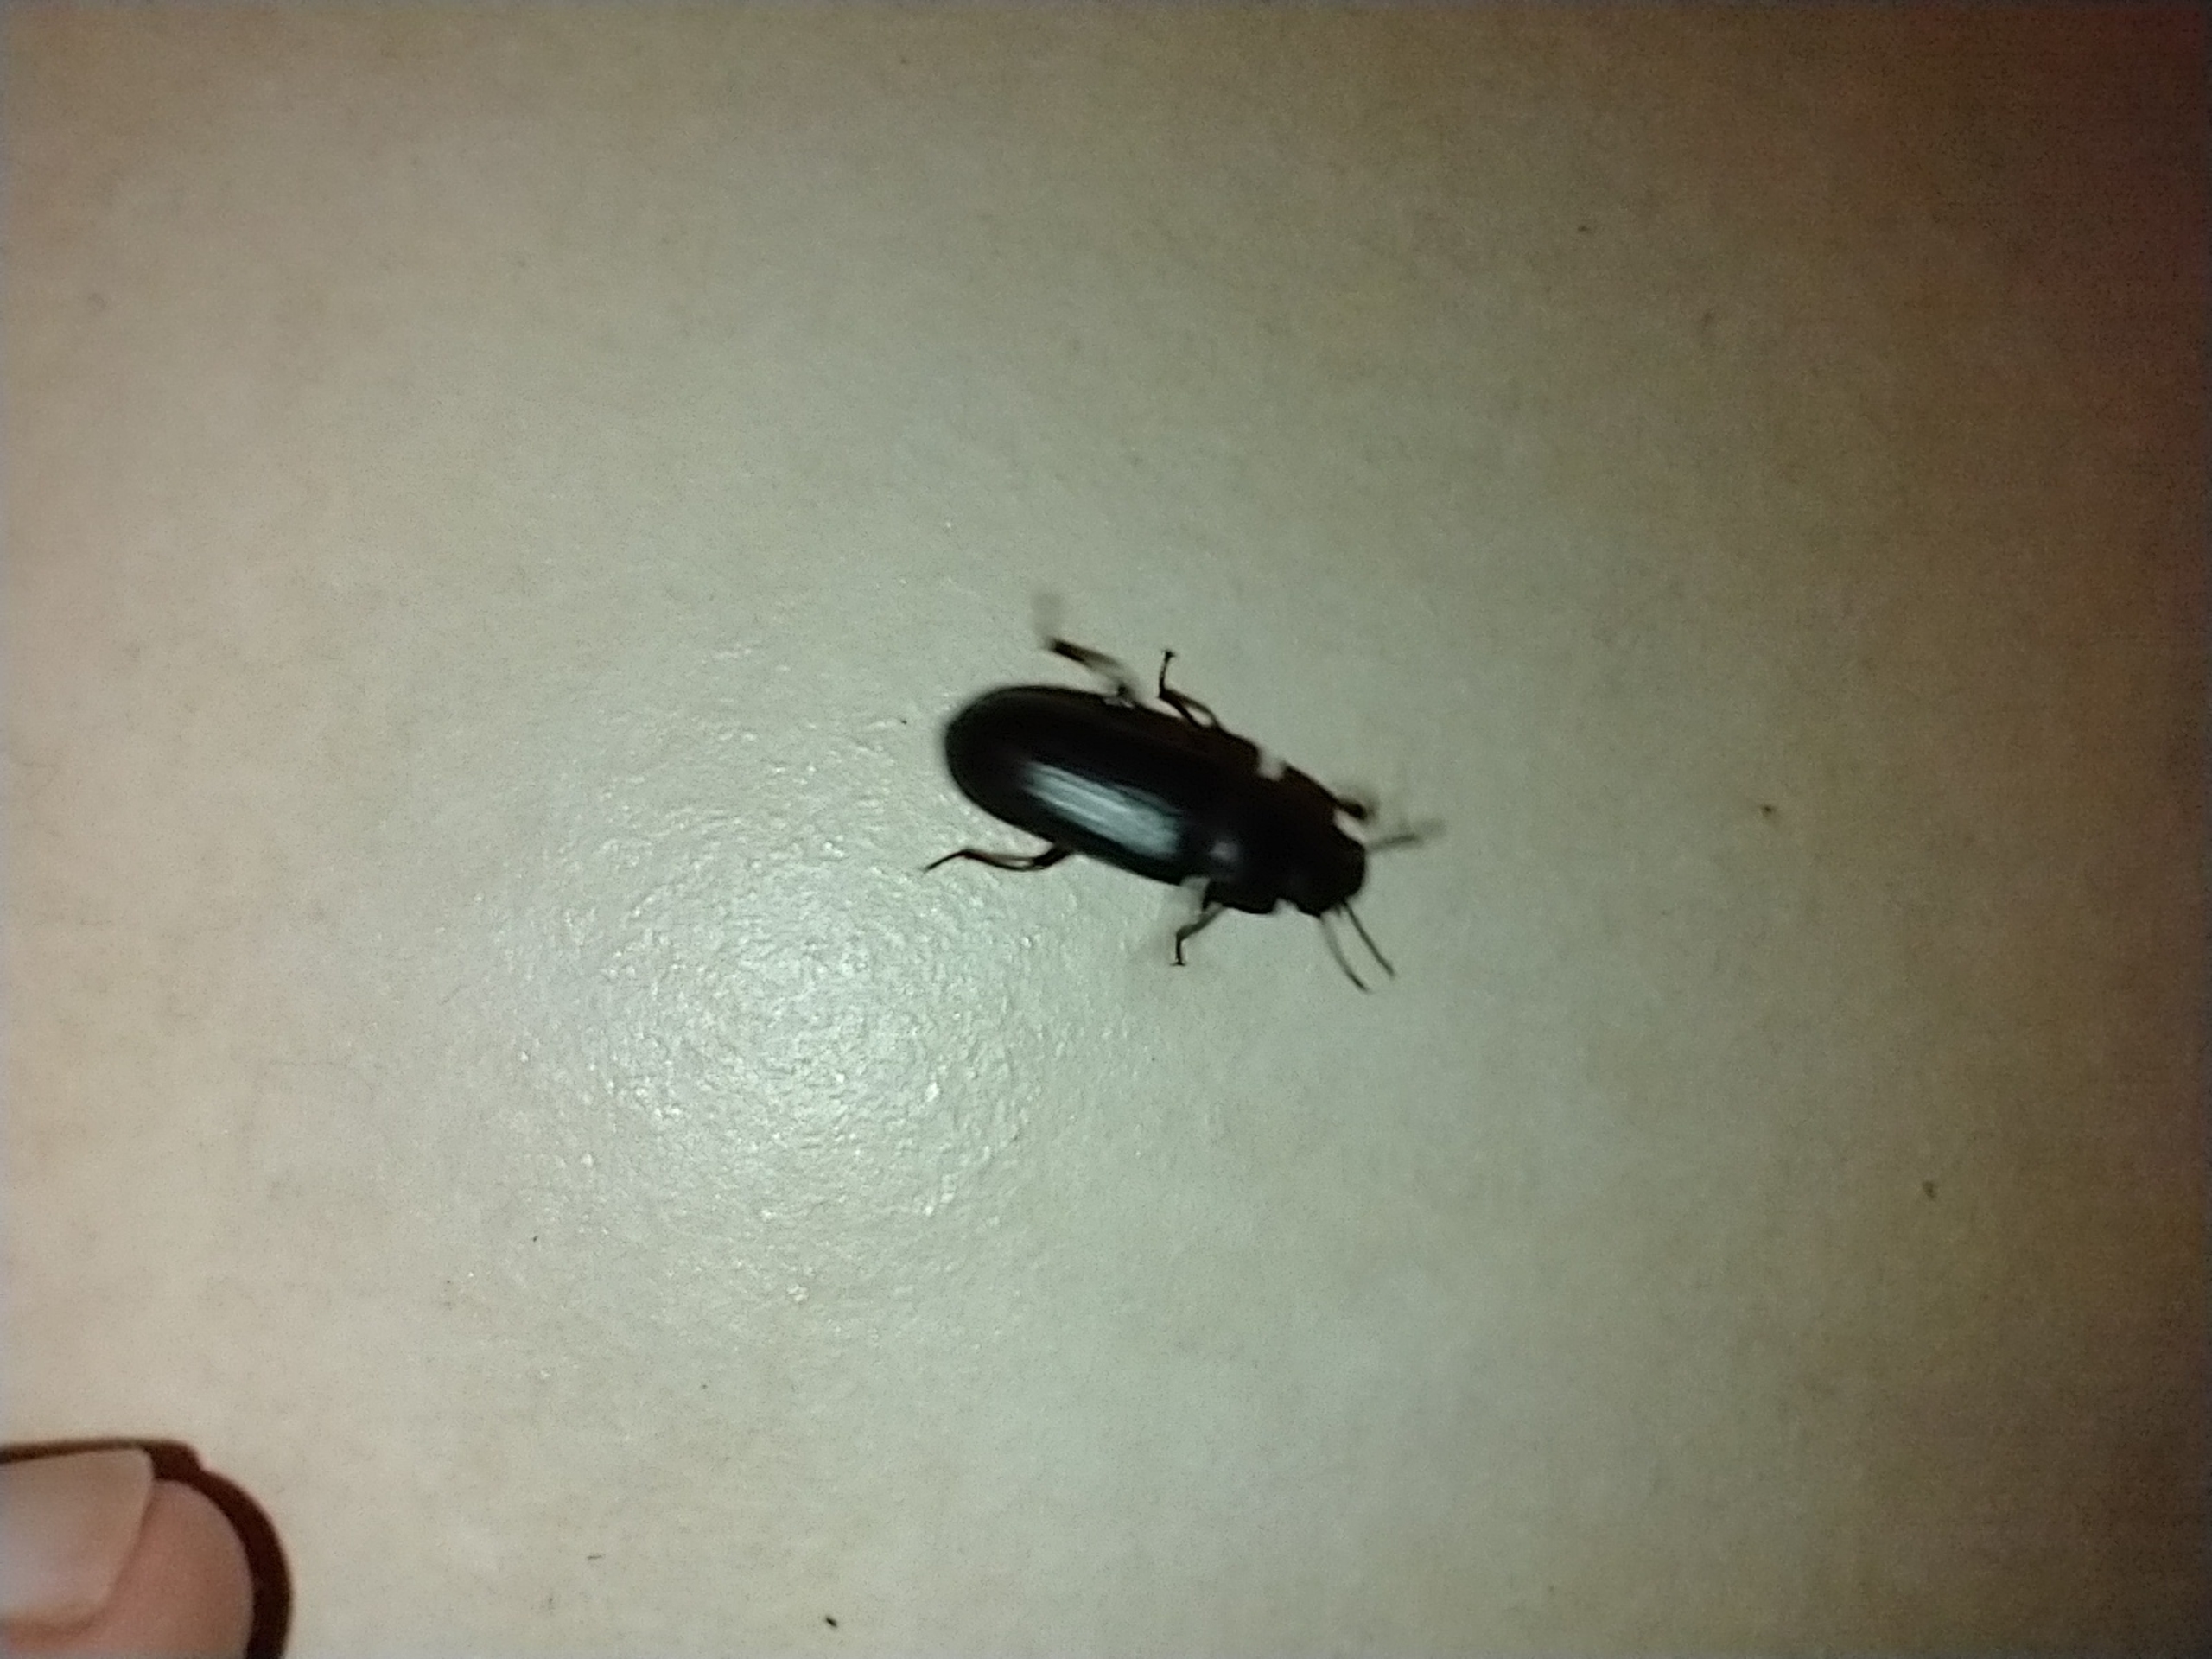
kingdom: Animalia
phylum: Arthropoda
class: Insecta
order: Coleoptera
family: Tenebrionidae
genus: Tenebrio
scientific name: Tenebrio molitor
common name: Melskrubbe
